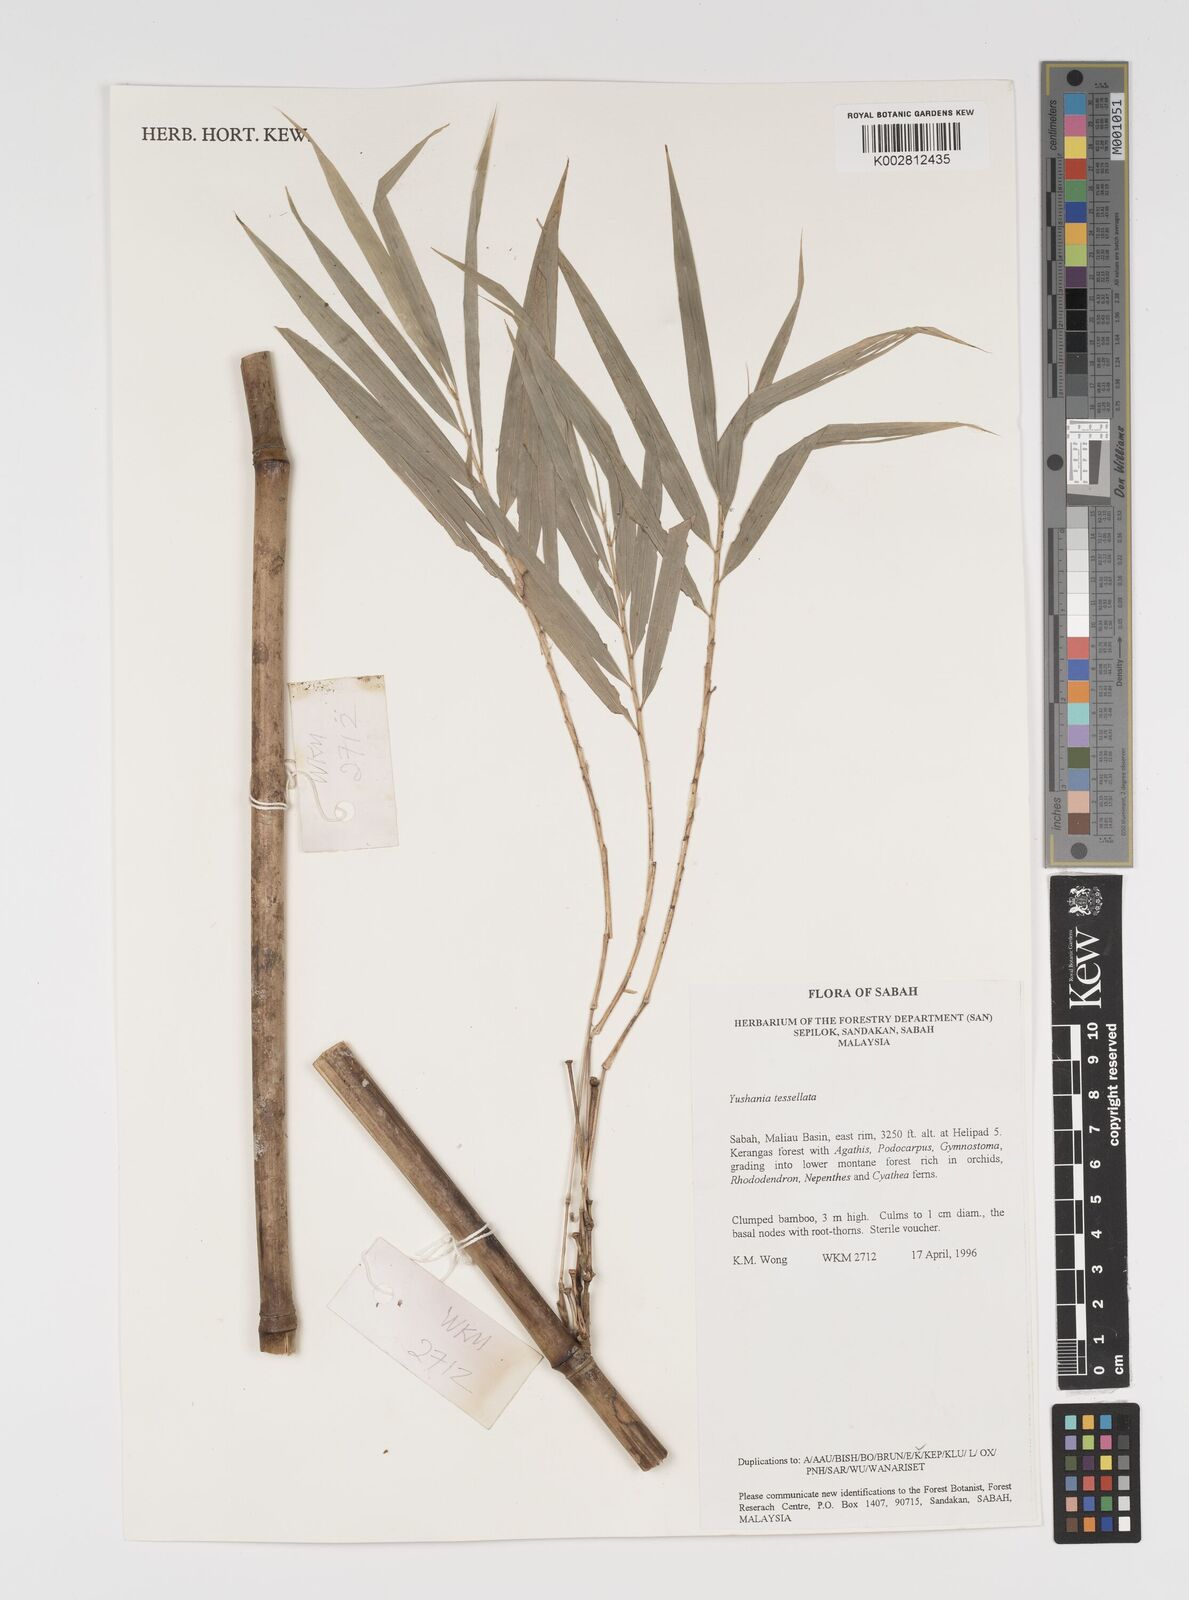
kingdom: Plantae
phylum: Tracheophyta
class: Liliopsida
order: Poales
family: Poaceae
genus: Yushania
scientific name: Yushania tessellata
